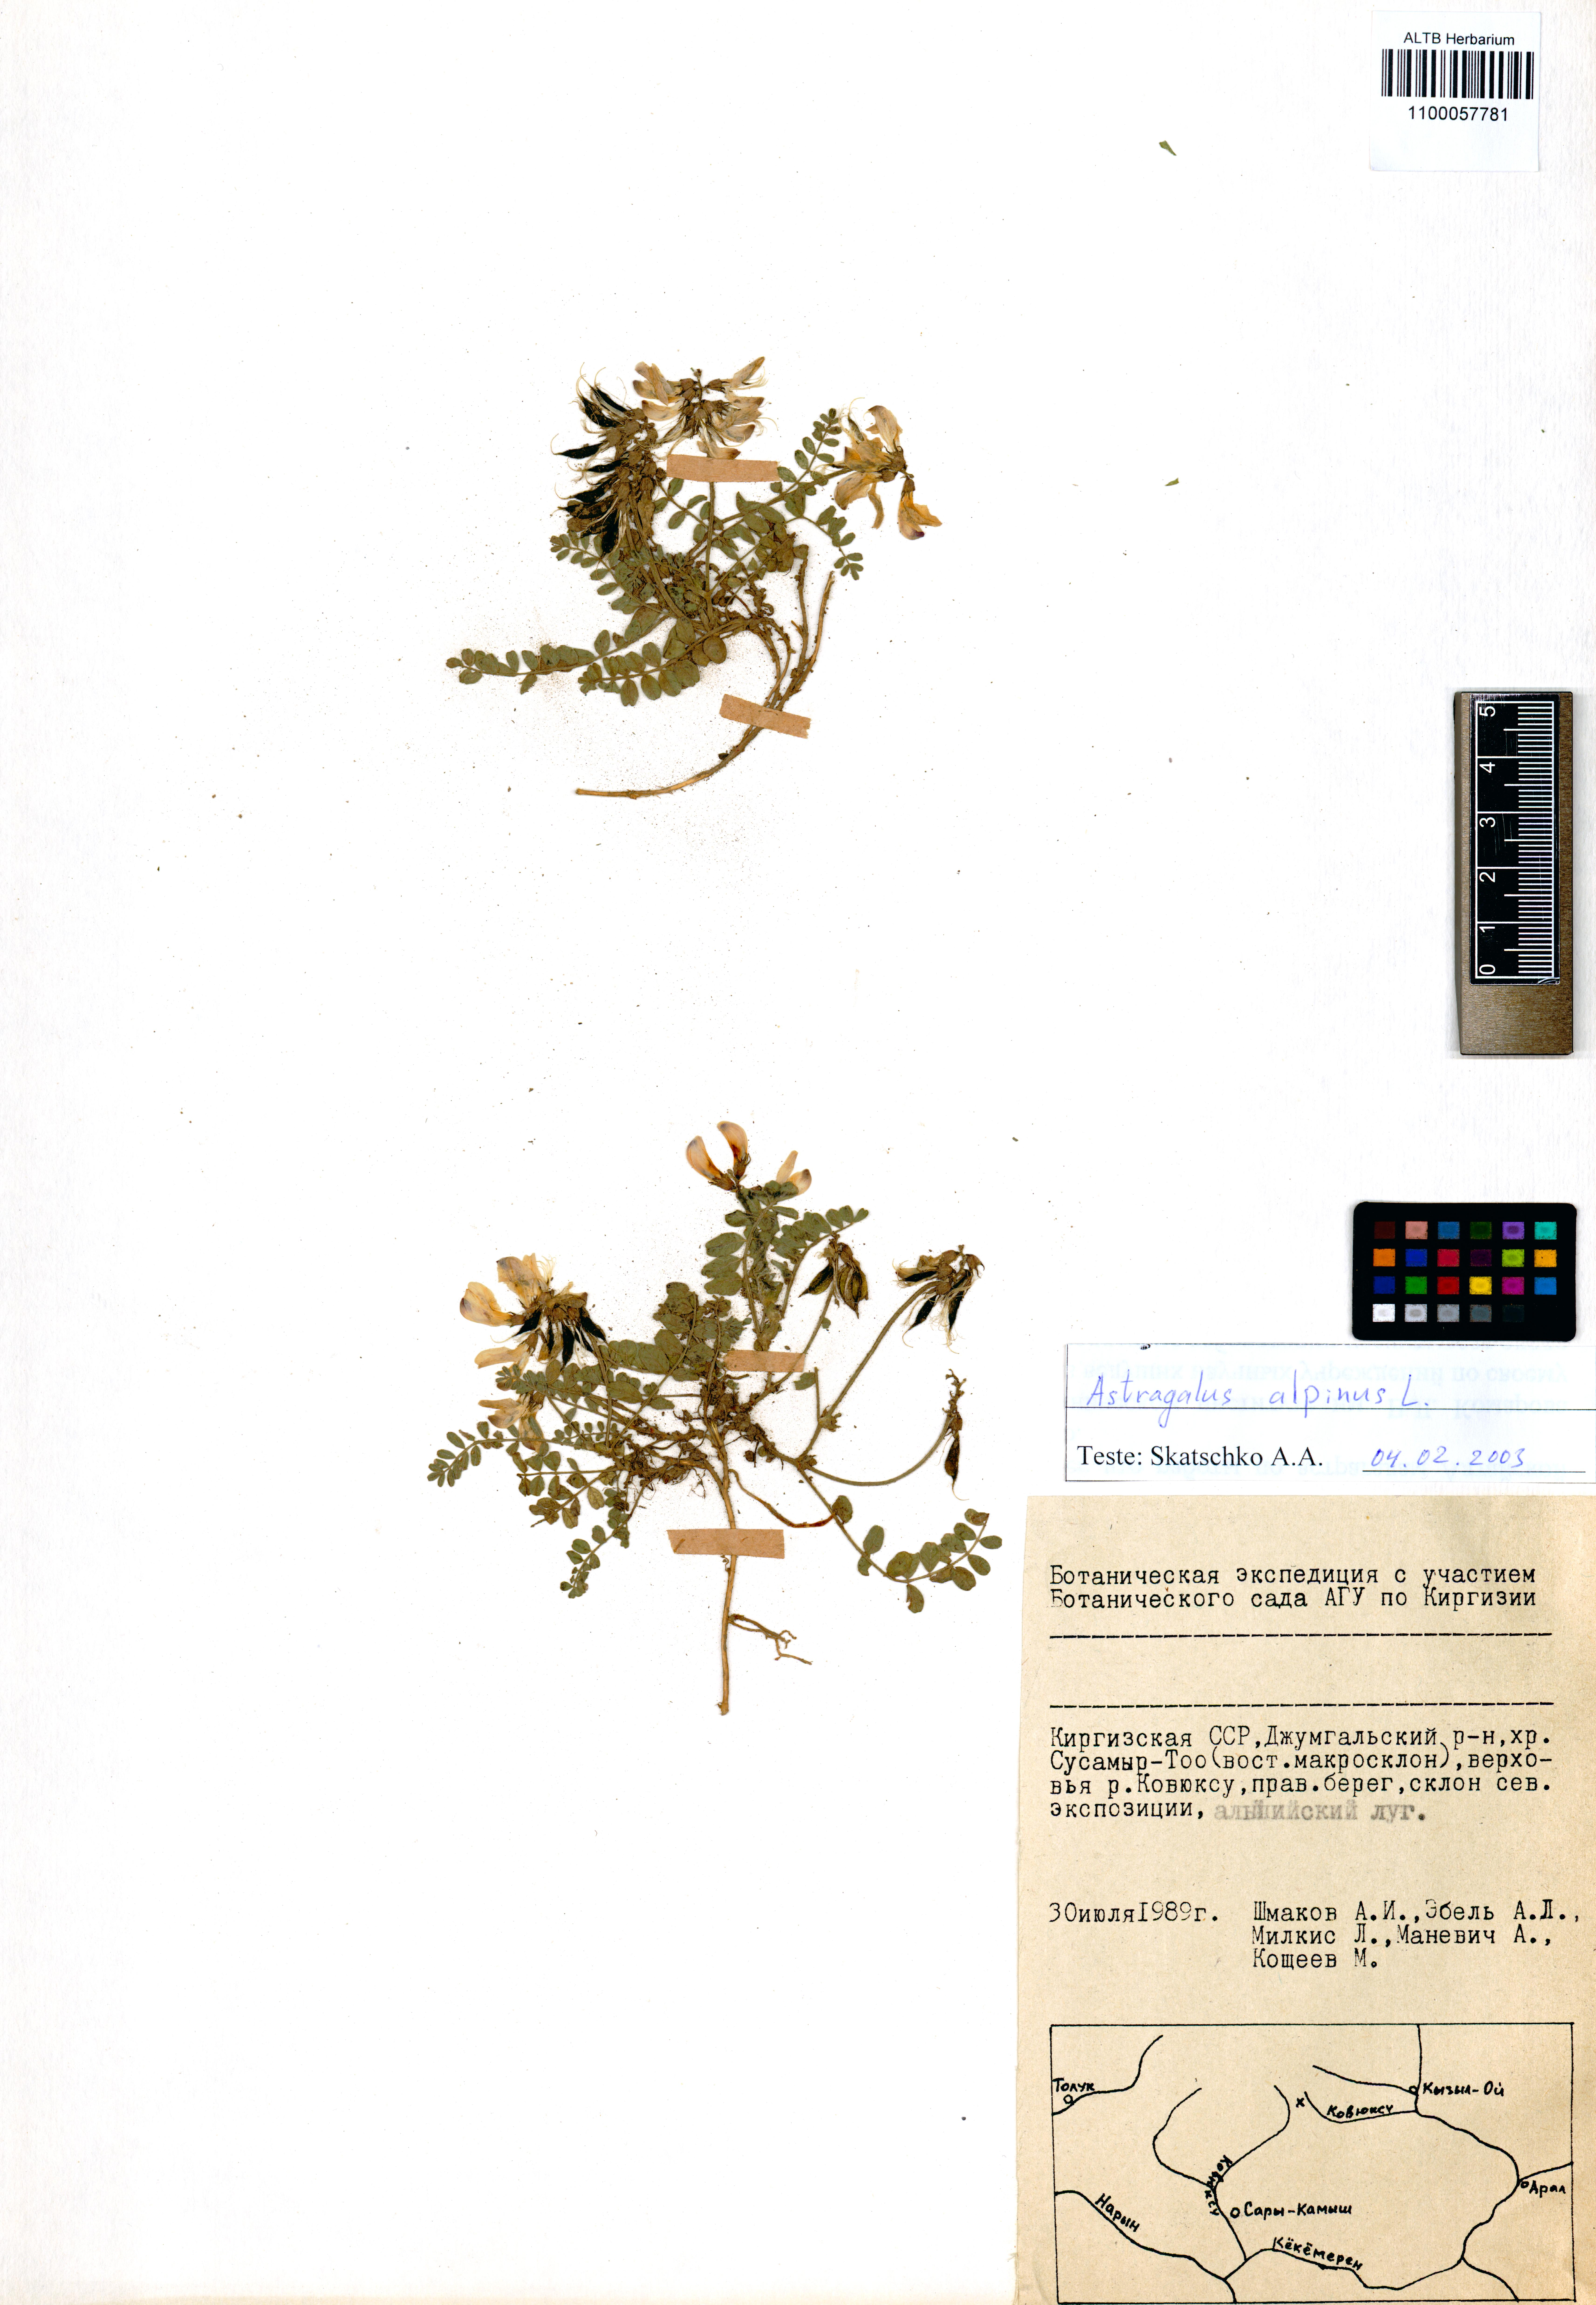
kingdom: Plantae
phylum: Tracheophyta
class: Magnoliopsida
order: Fabales
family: Fabaceae
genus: Astragalus
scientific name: Astragalus alpinus
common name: Alpine milk-vetch
